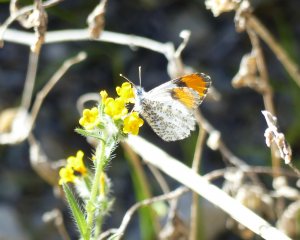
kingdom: Animalia
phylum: Arthropoda
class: Insecta
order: Lepidoptera
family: Pieridae
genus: Anthocharis
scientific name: Anthocharis sara
